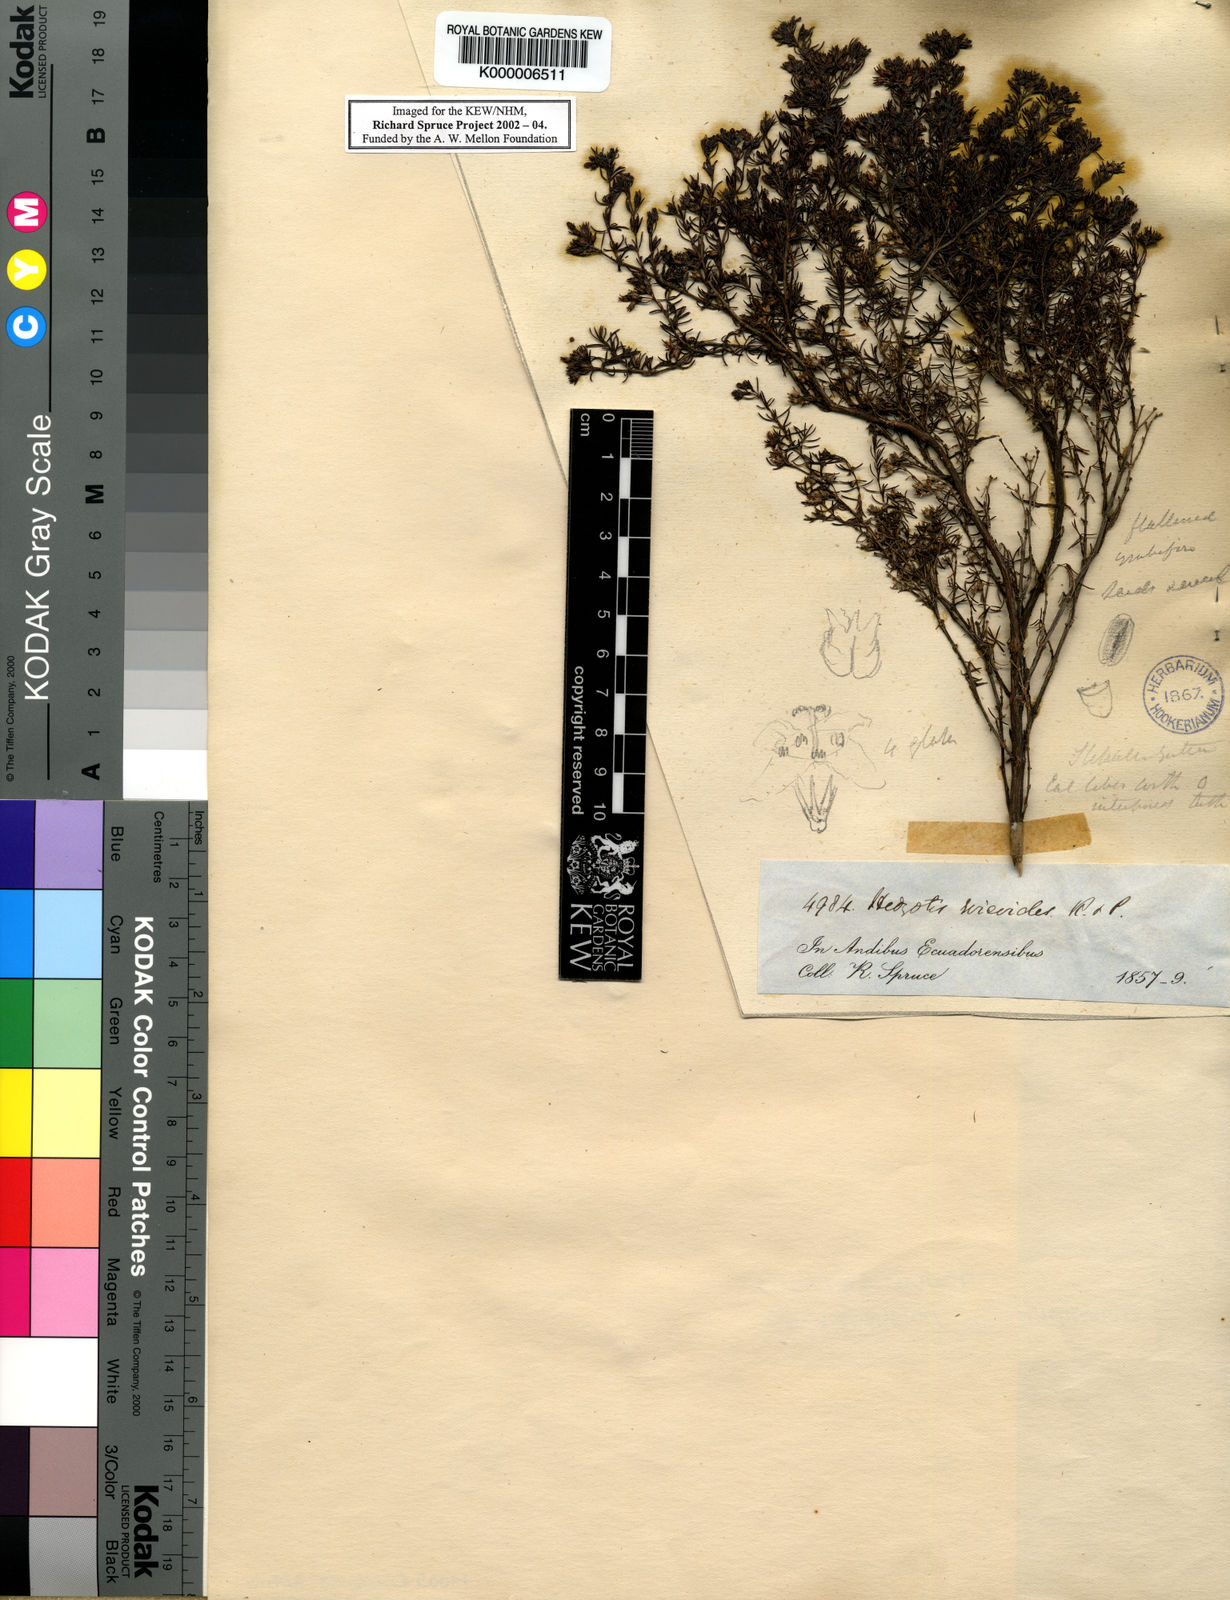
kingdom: Plantae
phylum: Tracheophyta
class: Magnoliopsida
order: Gentianales
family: Rubiaceae
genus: Arcytophyllum
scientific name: Arcytophyllum thymifolium
